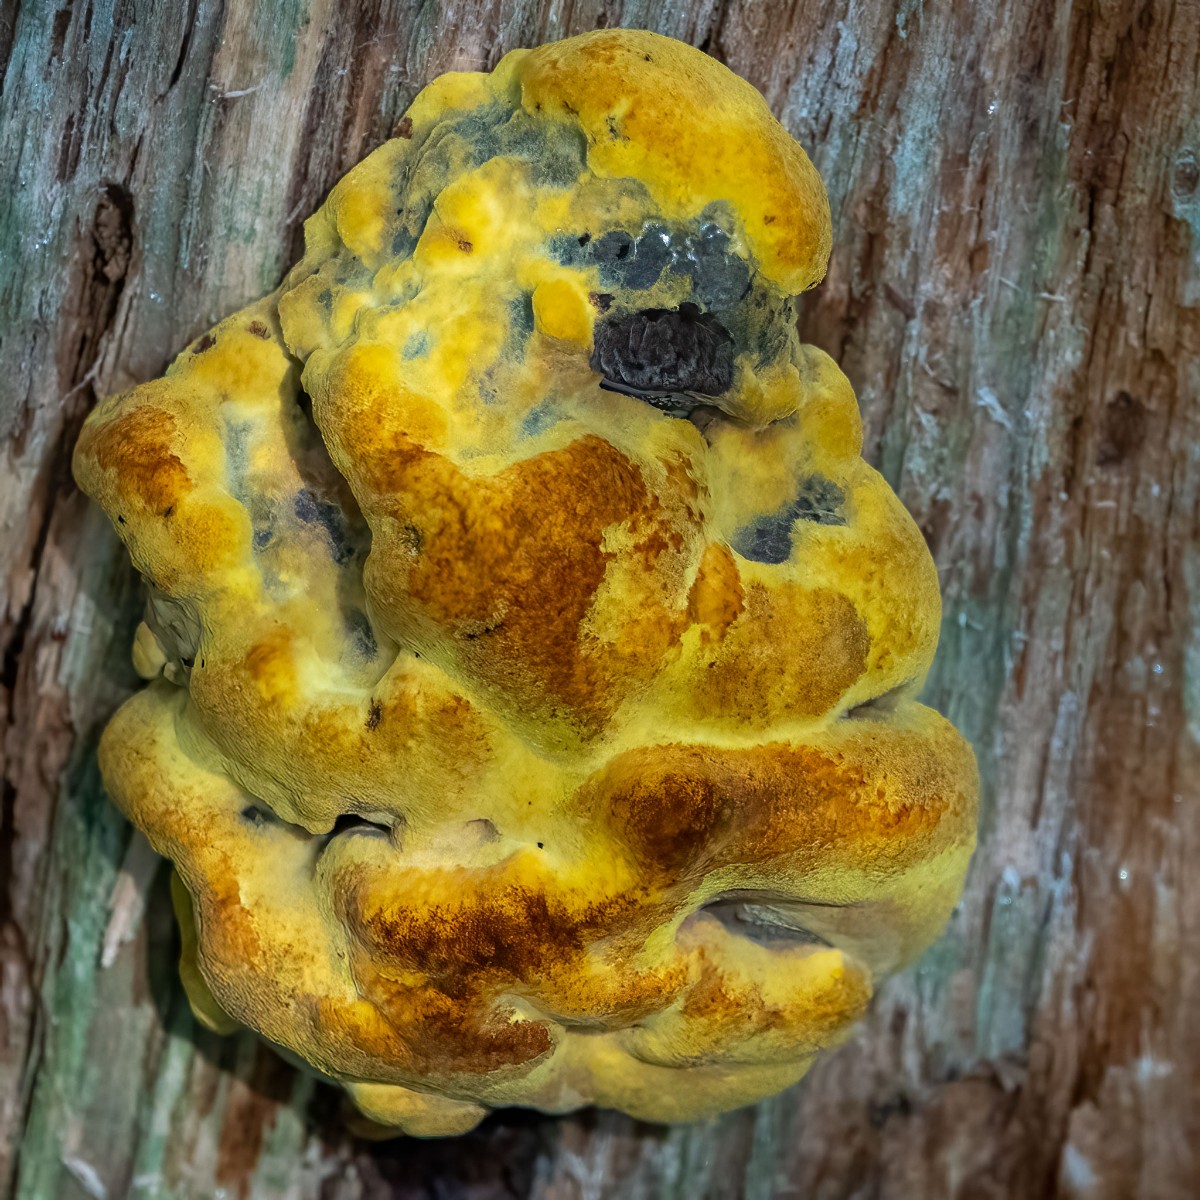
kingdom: Fungi
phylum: Basidiomycota
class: Agaricomycetes
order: Polyporales
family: Laetiporaceae
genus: Phaeolus
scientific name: Phaeolus schweinitzii
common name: brunporesvamp
